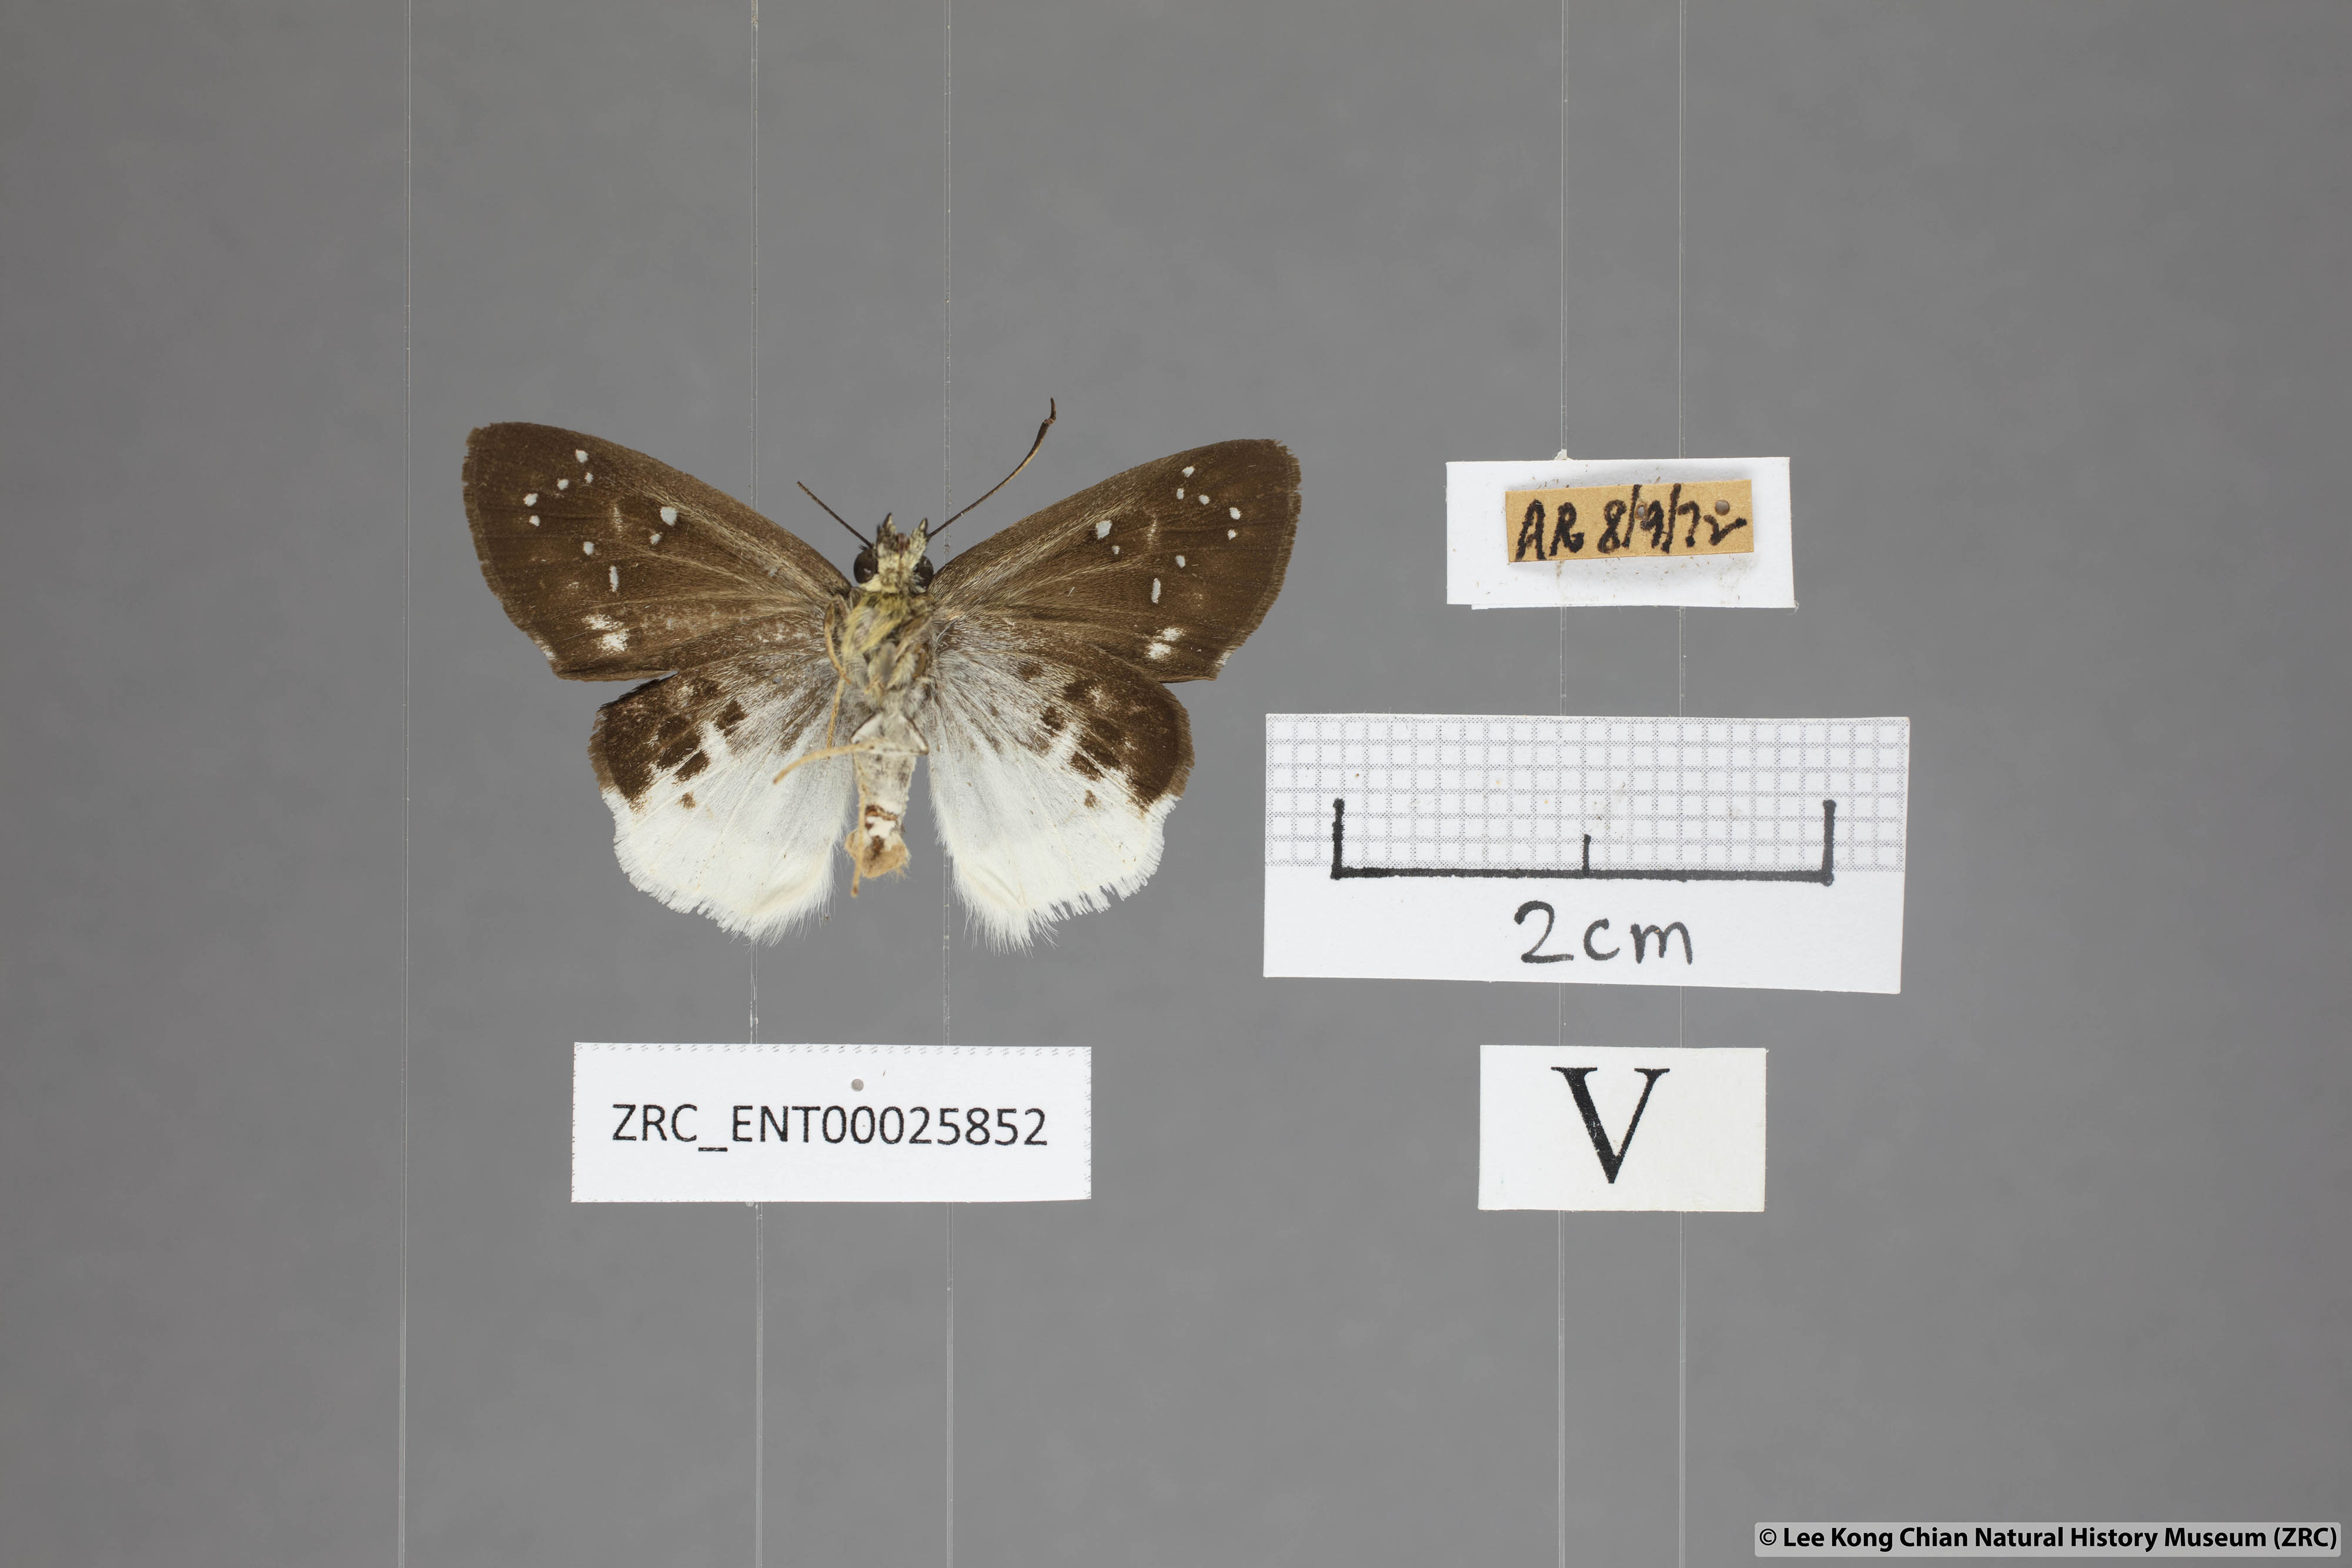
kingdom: Animalia
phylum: Arthropoda
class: Insecta
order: Lepidoptera
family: Hesperiidae
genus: Darpa
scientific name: Darpa pterica
